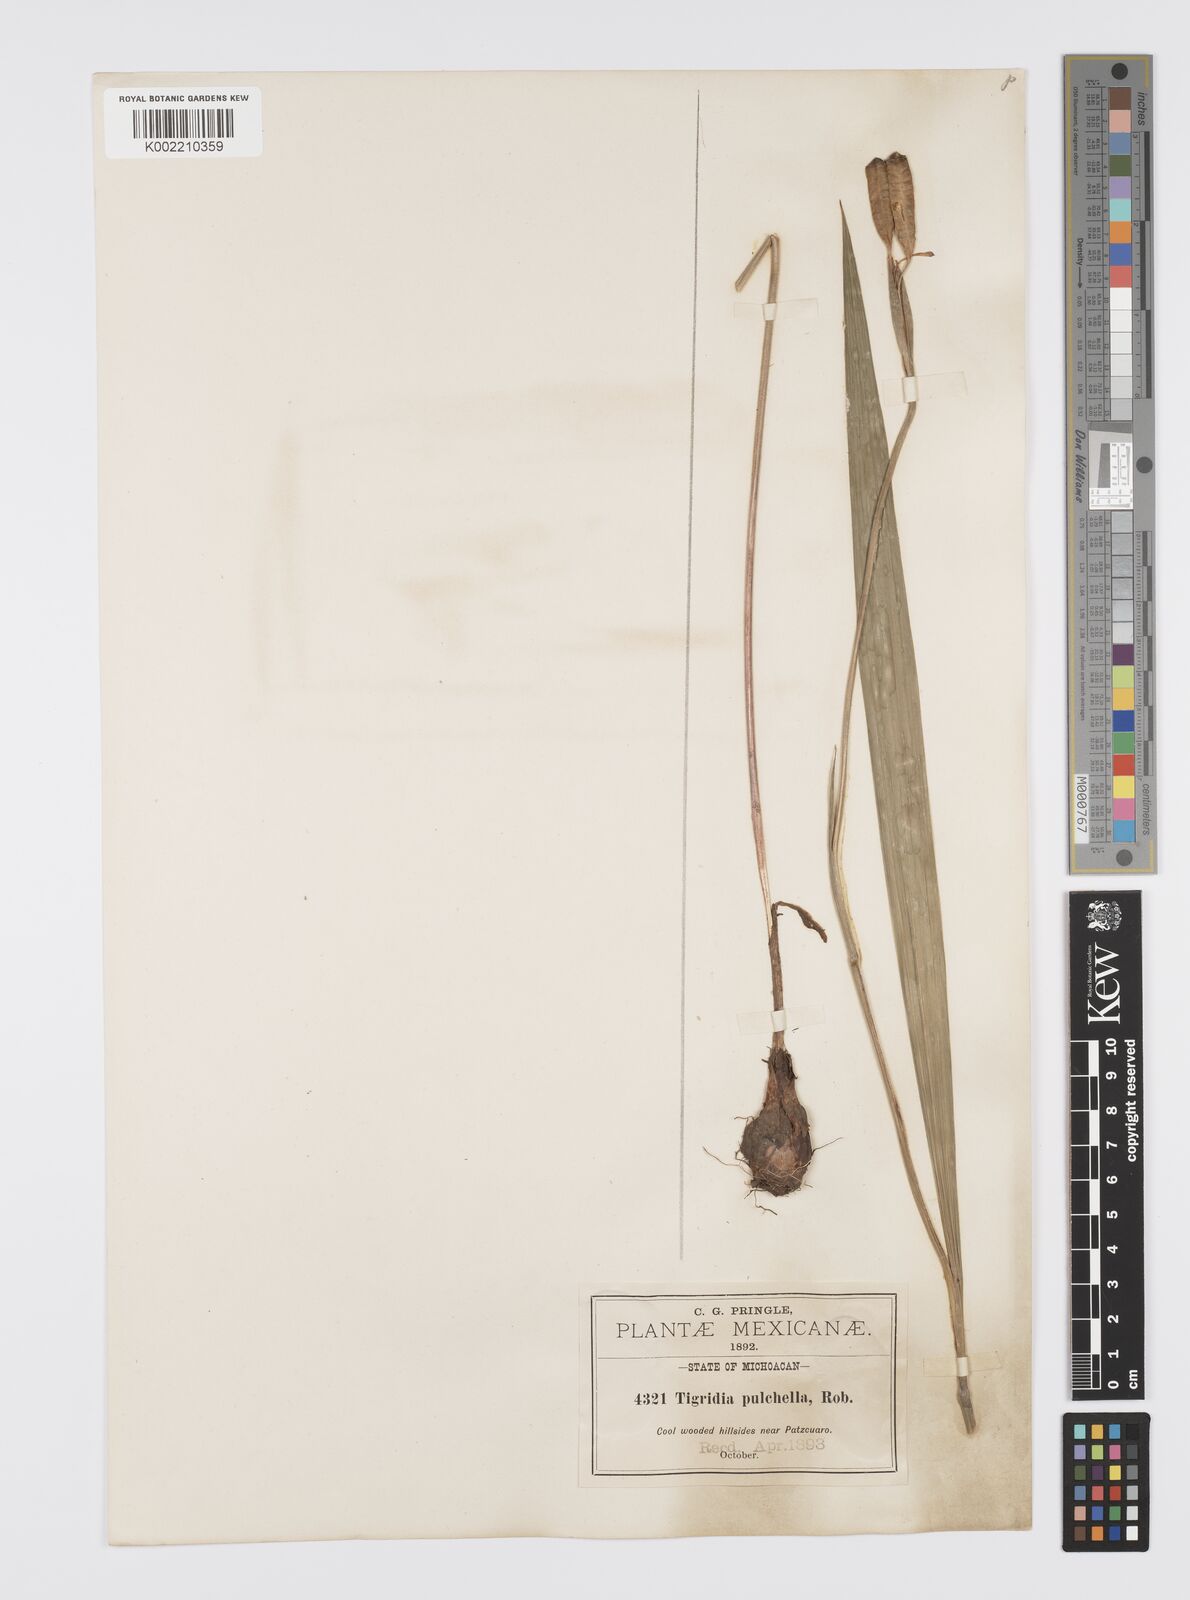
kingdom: Plantae
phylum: Tracheophyta
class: Liliopsida
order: Asparagales
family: Iridaceae
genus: Tigridia
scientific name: Tigridia pulchella
